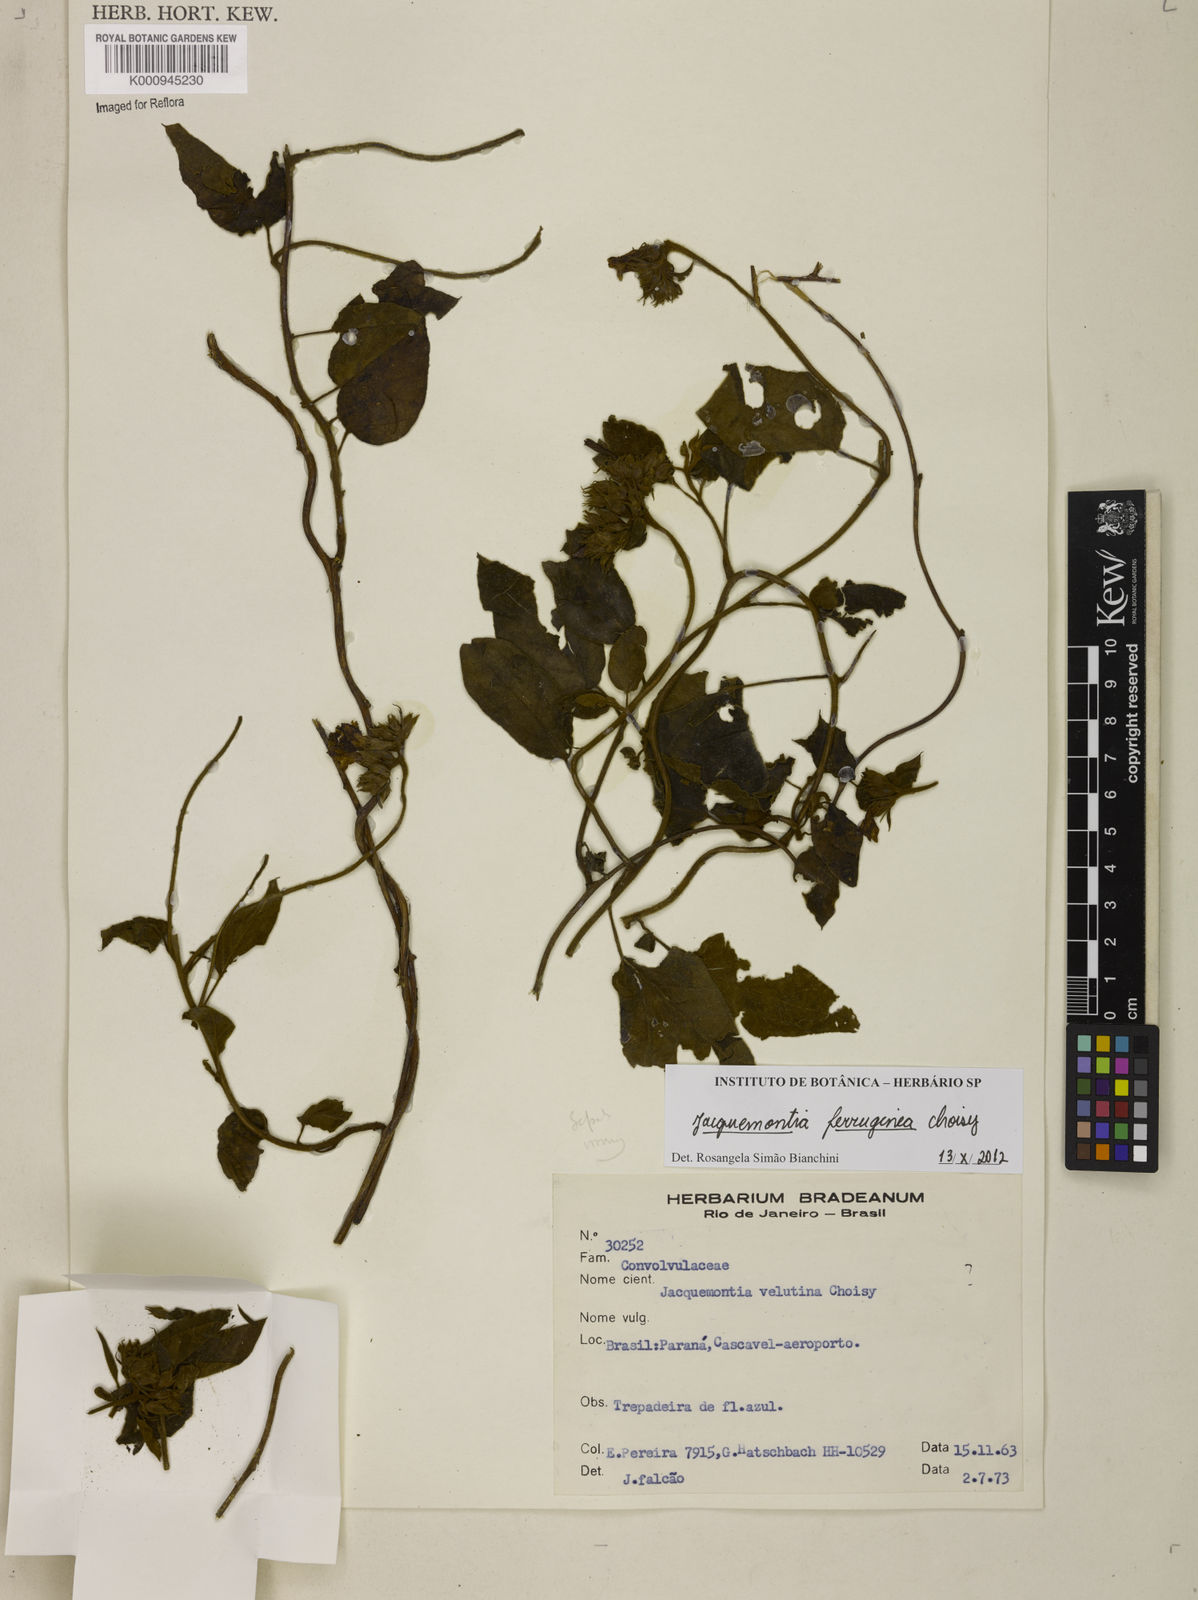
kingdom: Plantae
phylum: Tracheophyta
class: Magnoliopsida
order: Solanales
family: Convolvulaceae
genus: Jacquemontia
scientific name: Jacquemontia cumanensis
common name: Thicket clustervine
